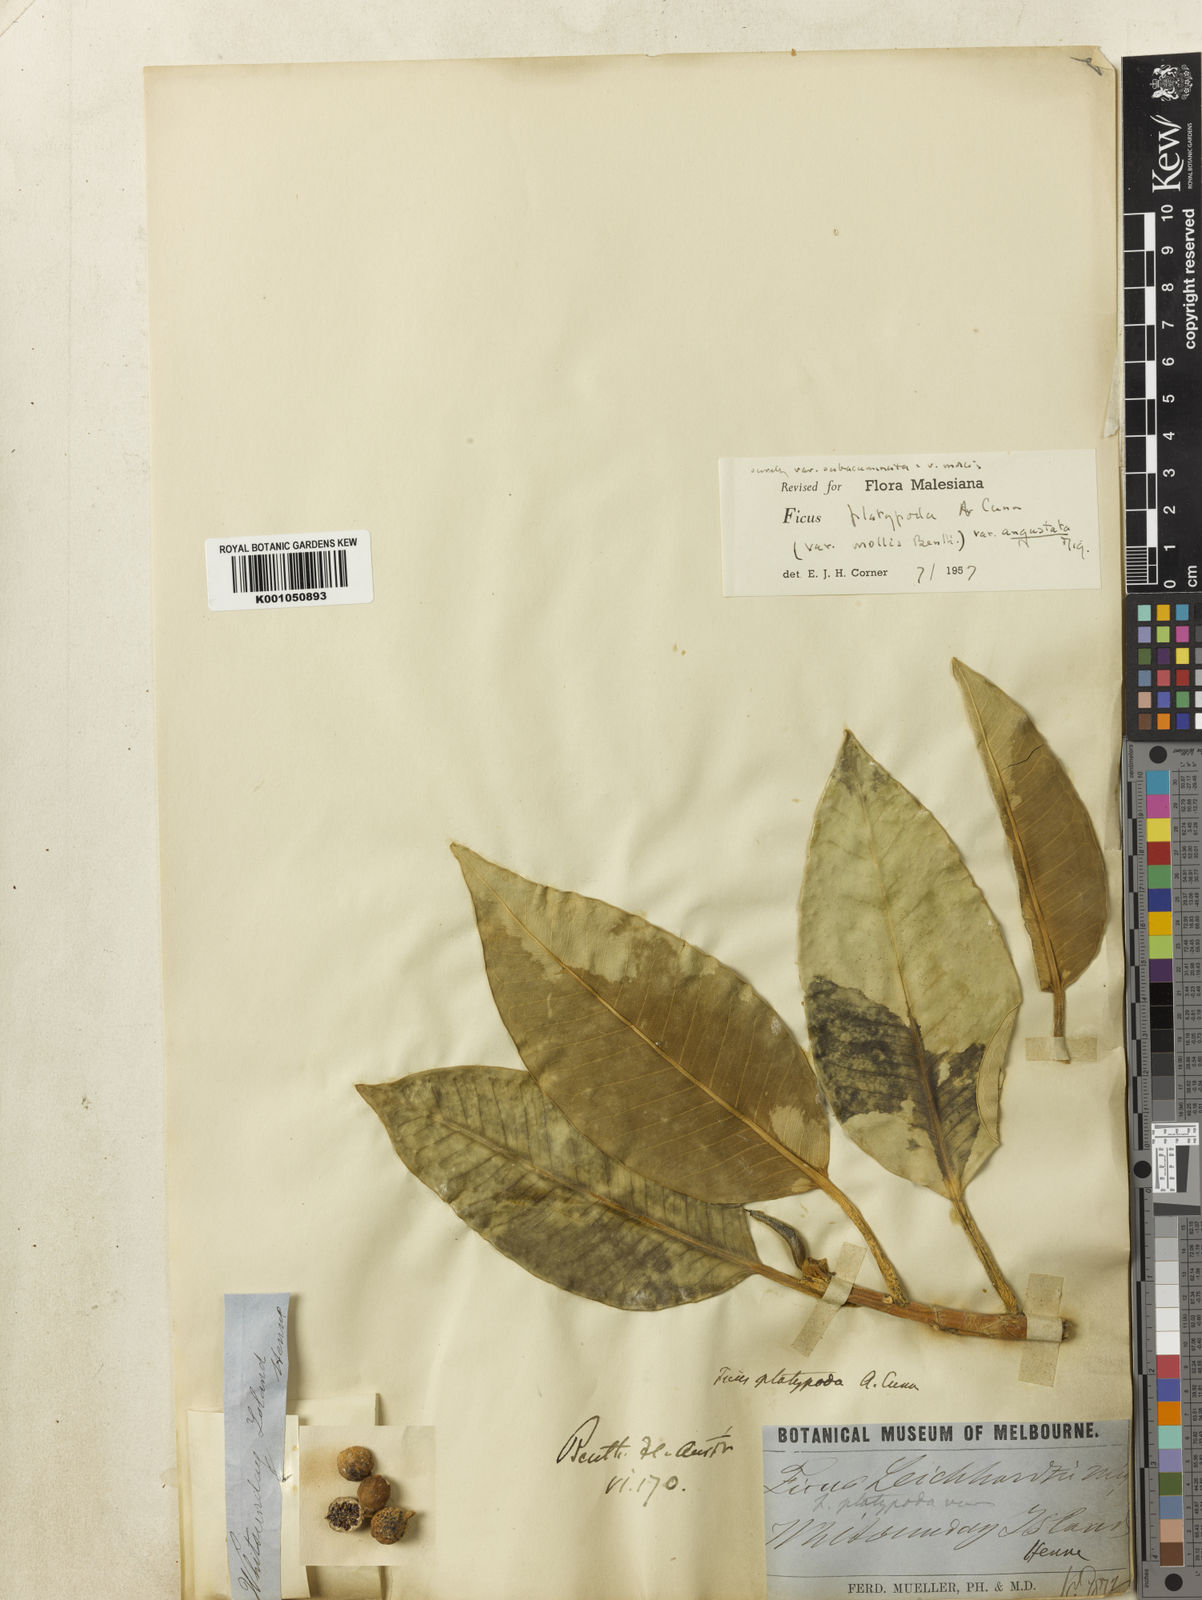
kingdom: Plantae
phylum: Tracheophyta
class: Magnoliopsida
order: Rosales
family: Moraceae
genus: Ficus
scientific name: Ficus tinctoria
